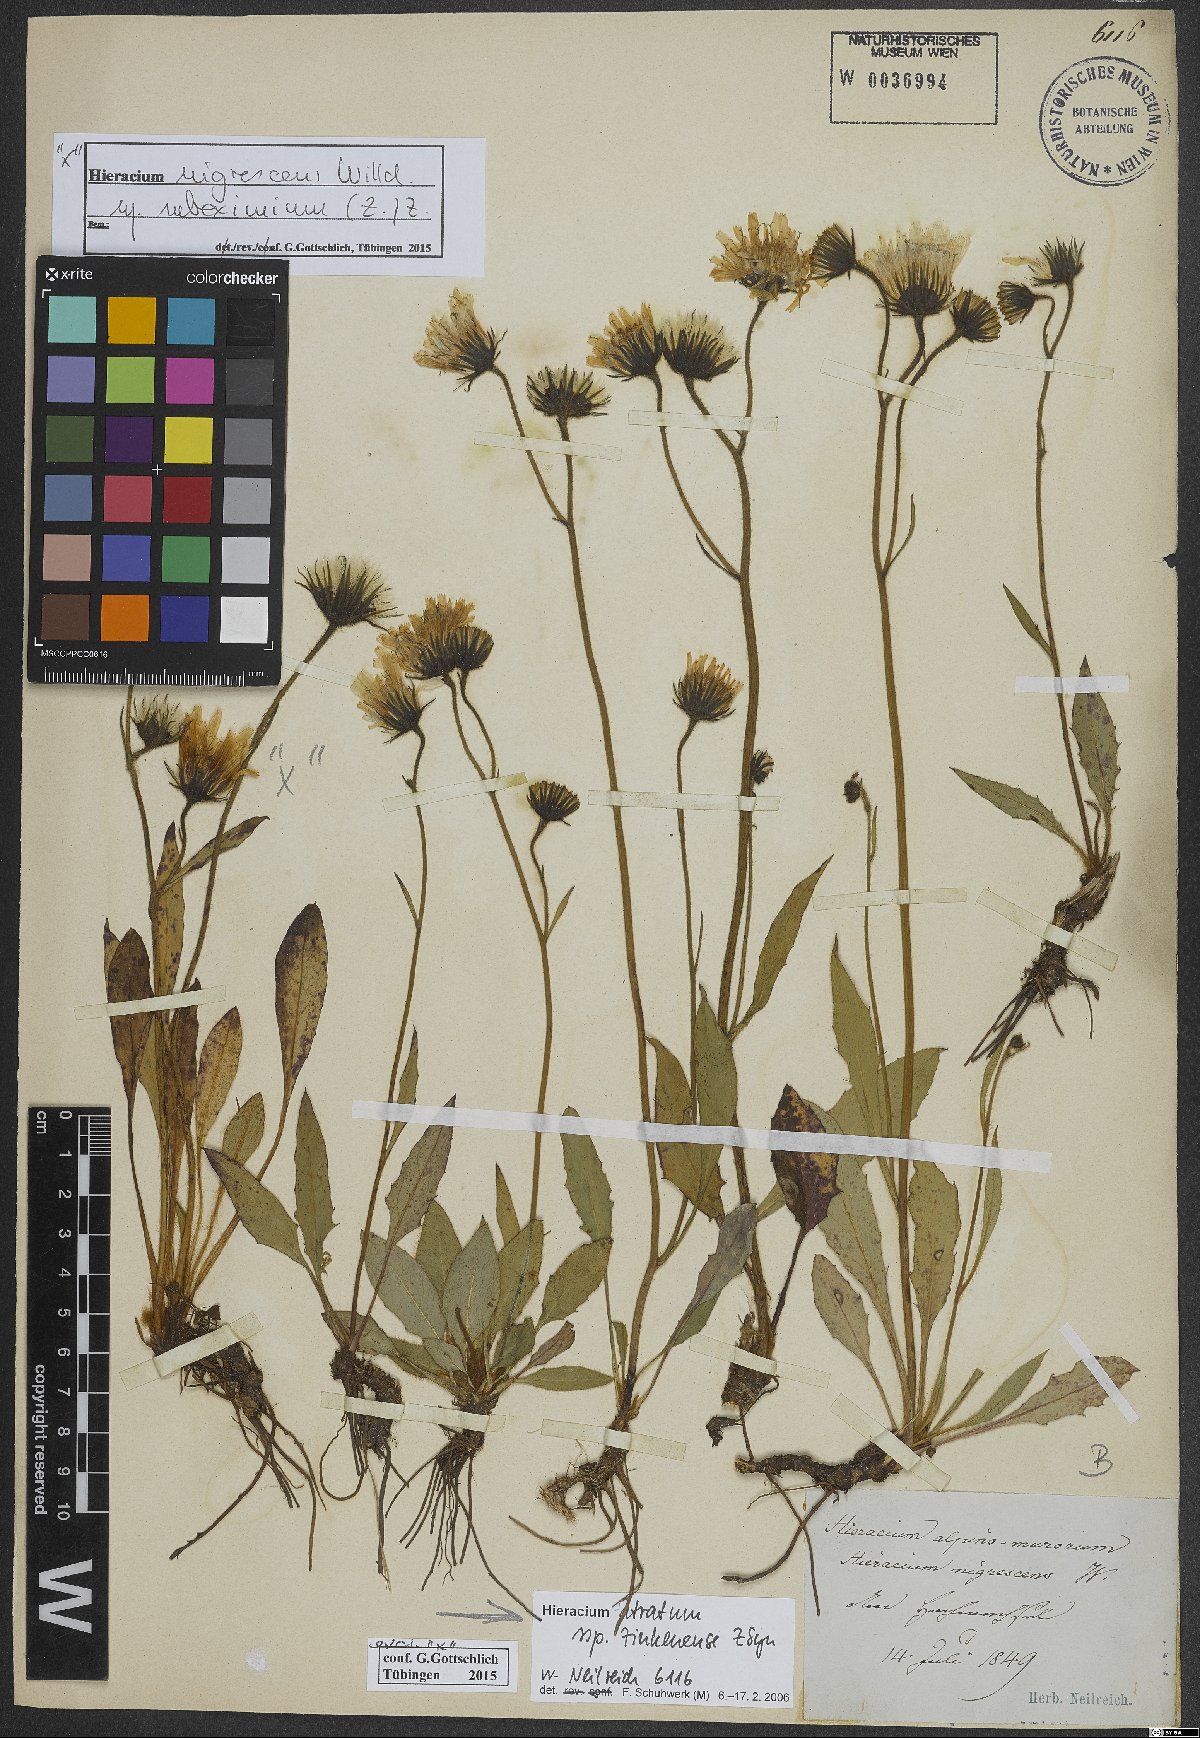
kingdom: Plantae
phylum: Tracheophyta
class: Magnoliopsida
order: Asterales
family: Asteraceae
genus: Hieracium
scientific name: Hieracium atratum
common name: Polar hawkweed
